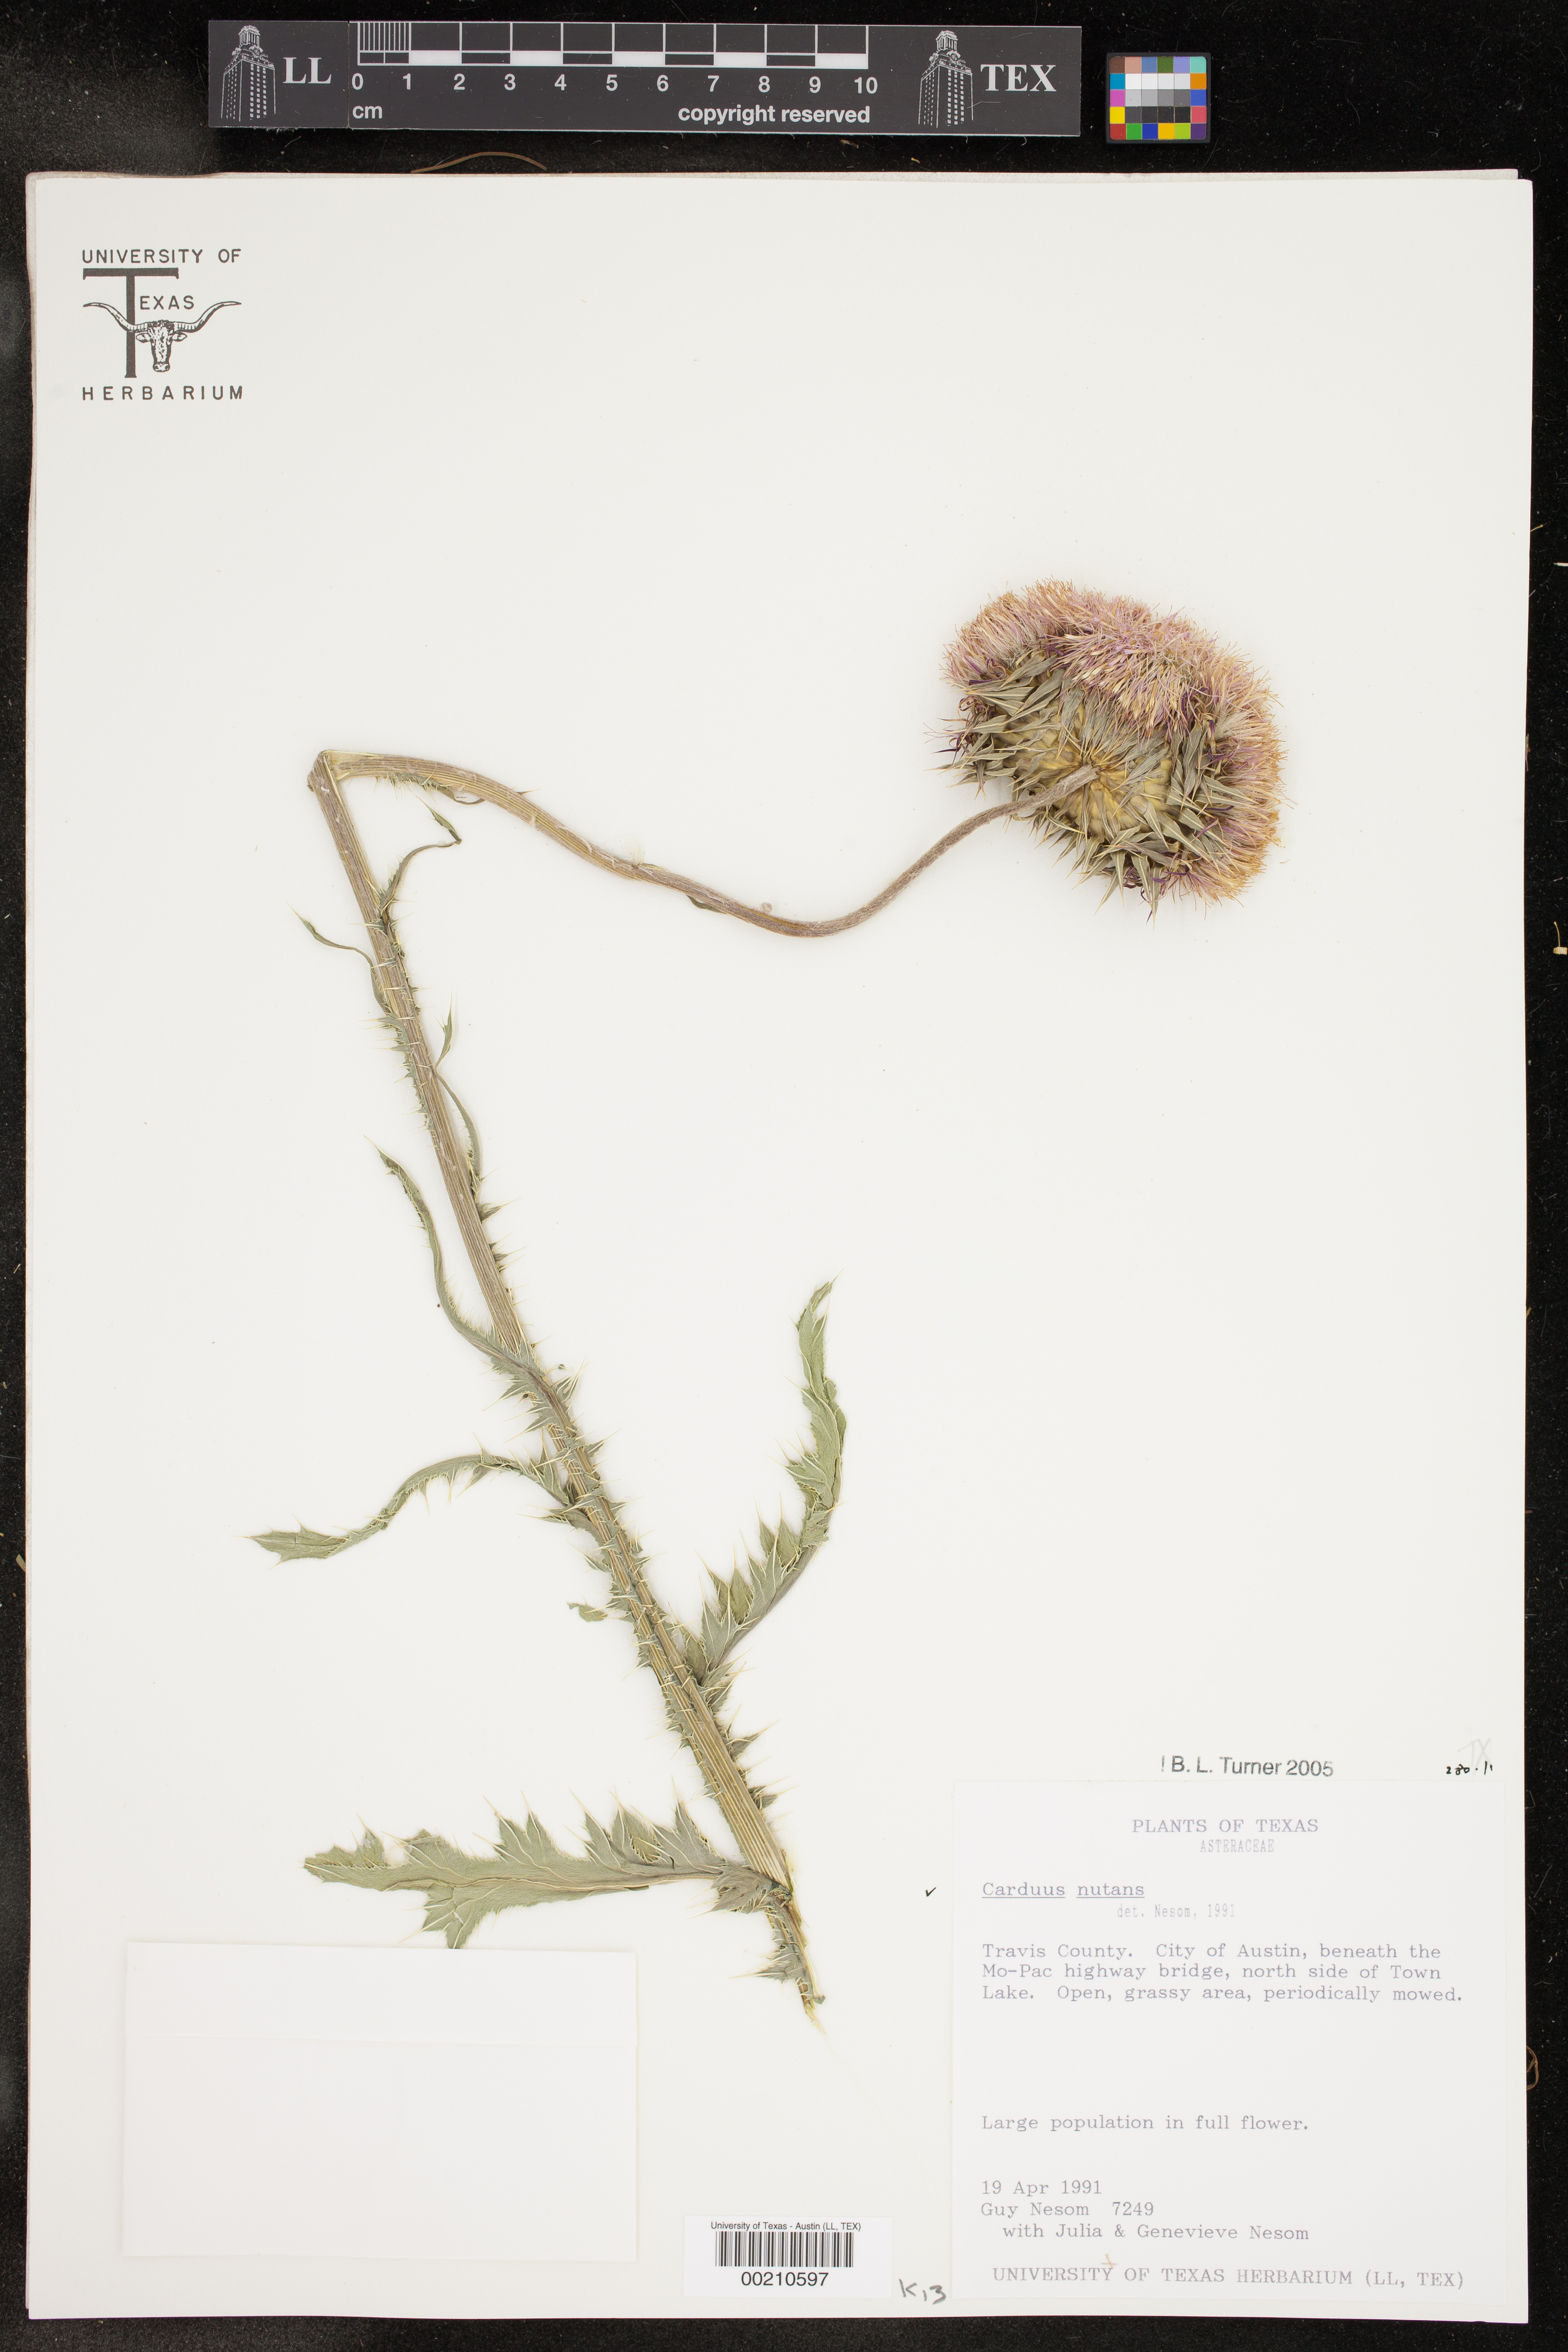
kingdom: Plantae
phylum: Tracheophyta
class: Magnoliopsida
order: Asterales
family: Asteraceae
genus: Carduus
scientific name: Carduus nutans
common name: Musk thistle
